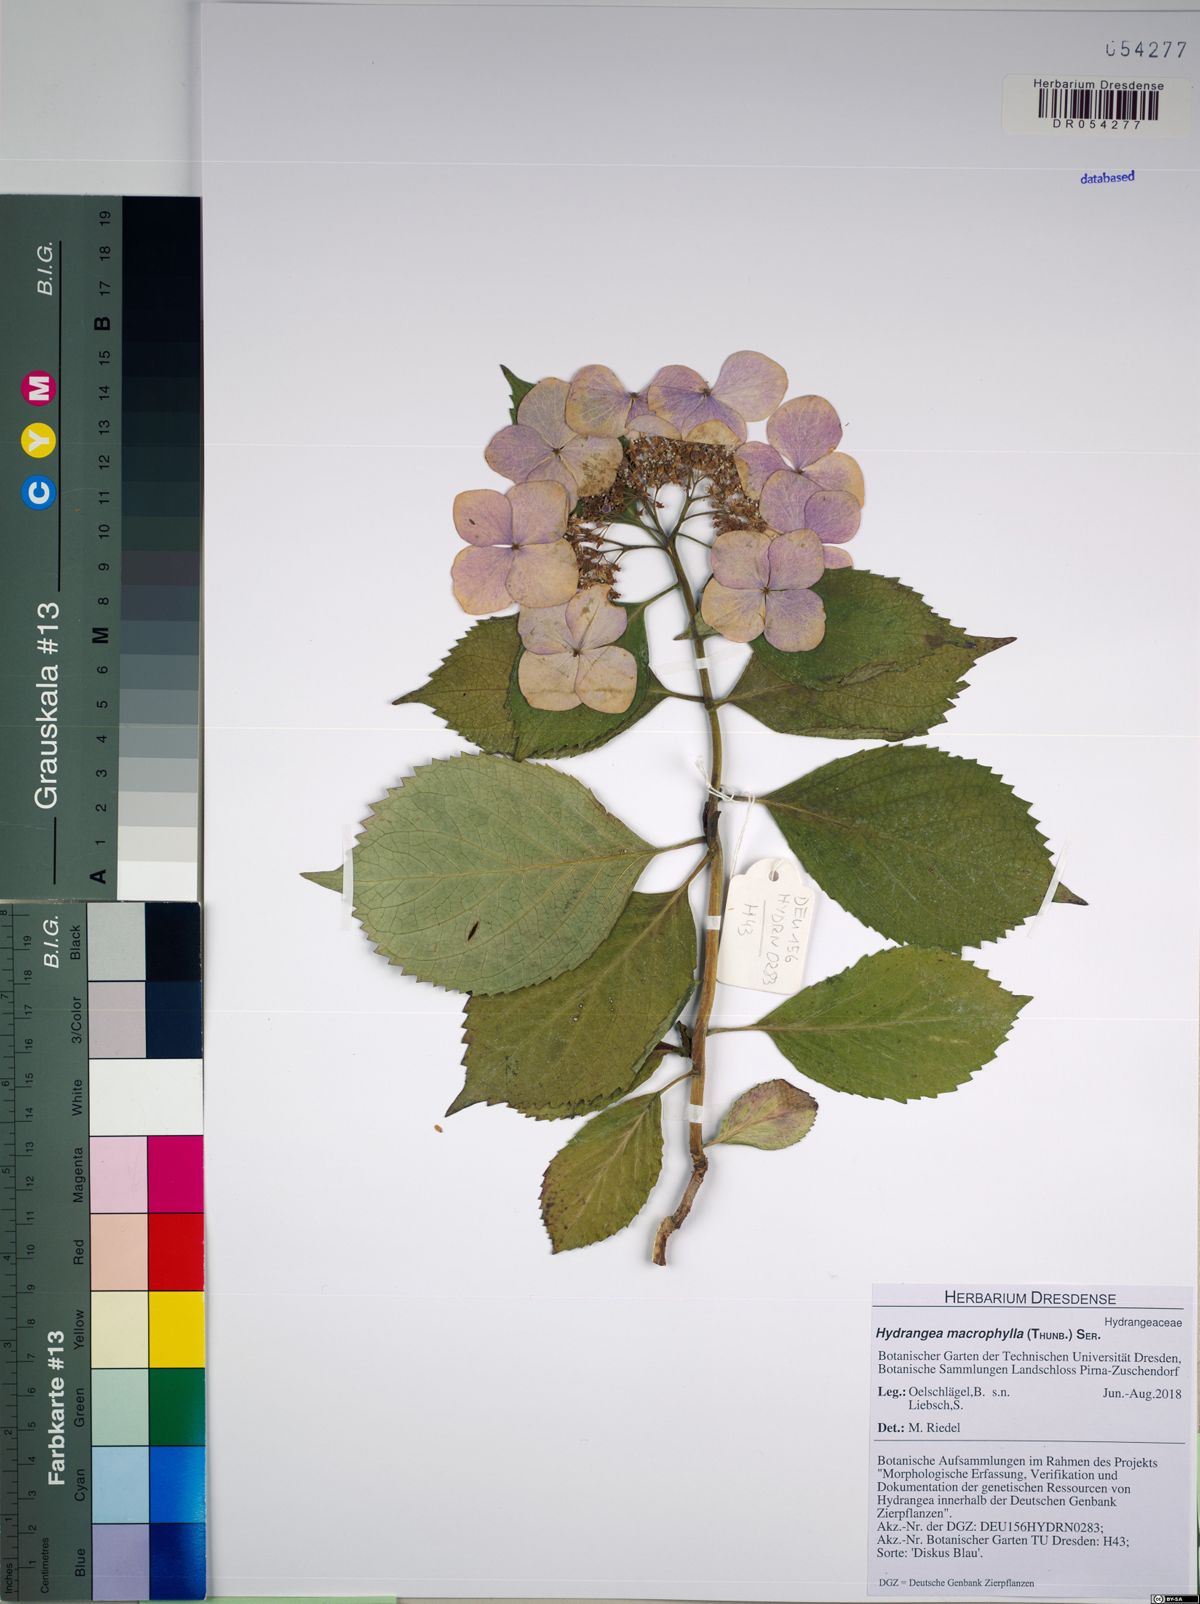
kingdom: Plantae
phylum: Tracheophyta
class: Magnoliopsida
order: Cornales
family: Hydrangeaceae
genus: Hydrangea
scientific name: Hydrangea macrophylla
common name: Hydrangea
